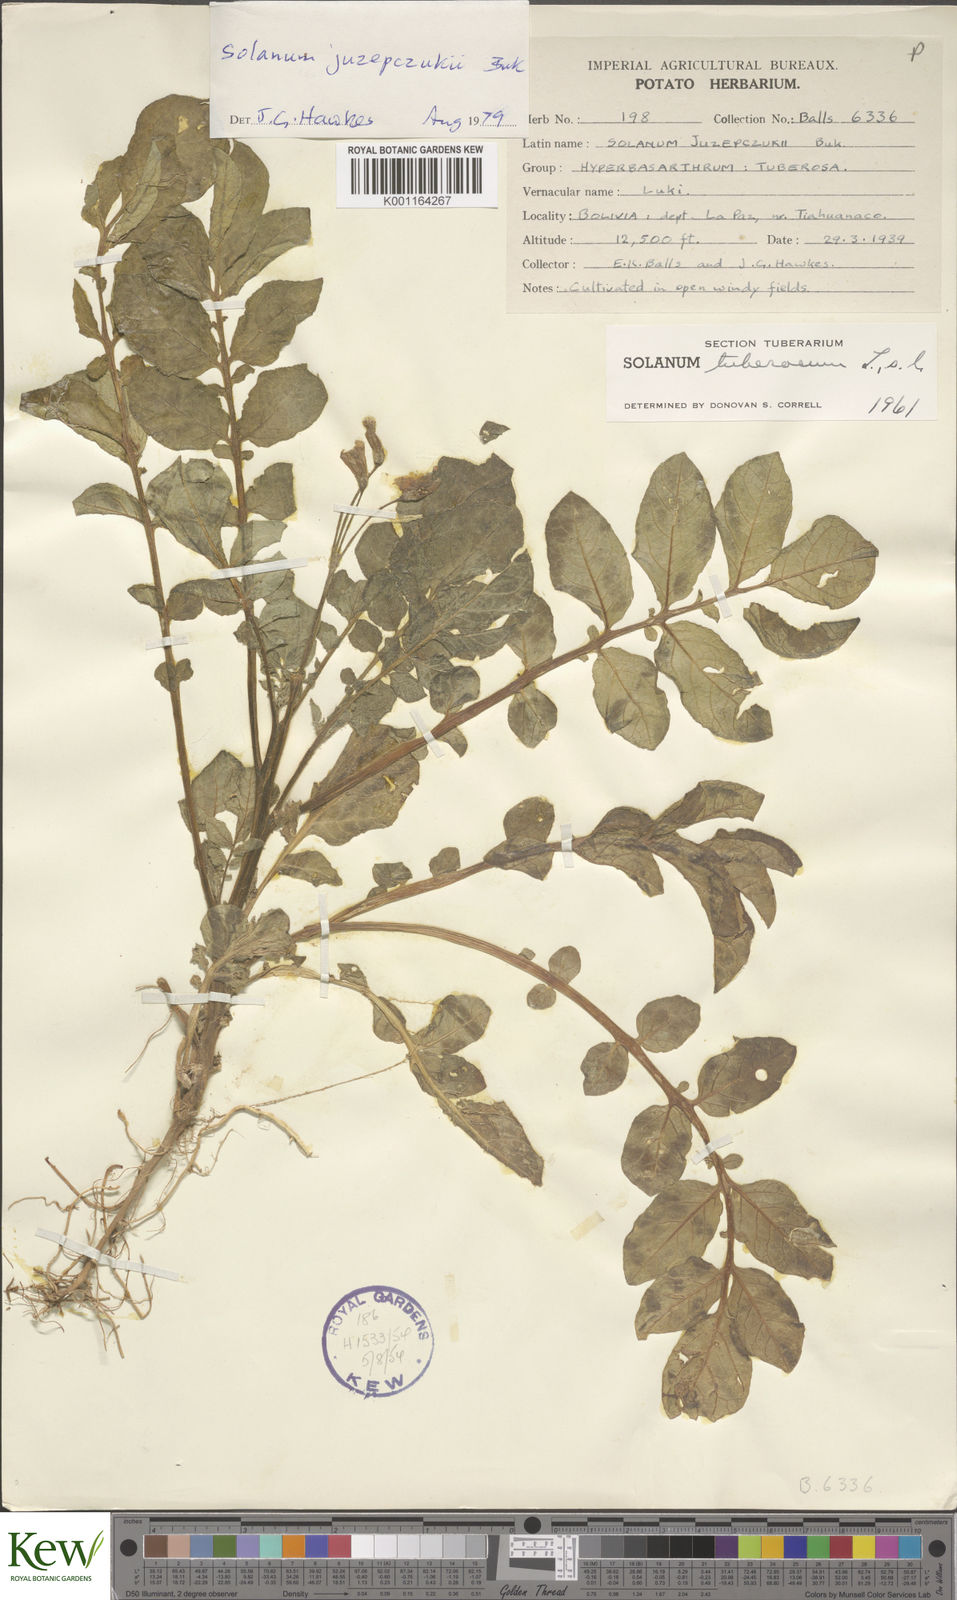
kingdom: Plantae
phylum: Tracheophyta
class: Magnoliopsida
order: Solanales
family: Solanaceae
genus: Solanum
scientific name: Solanum juzepczukii
